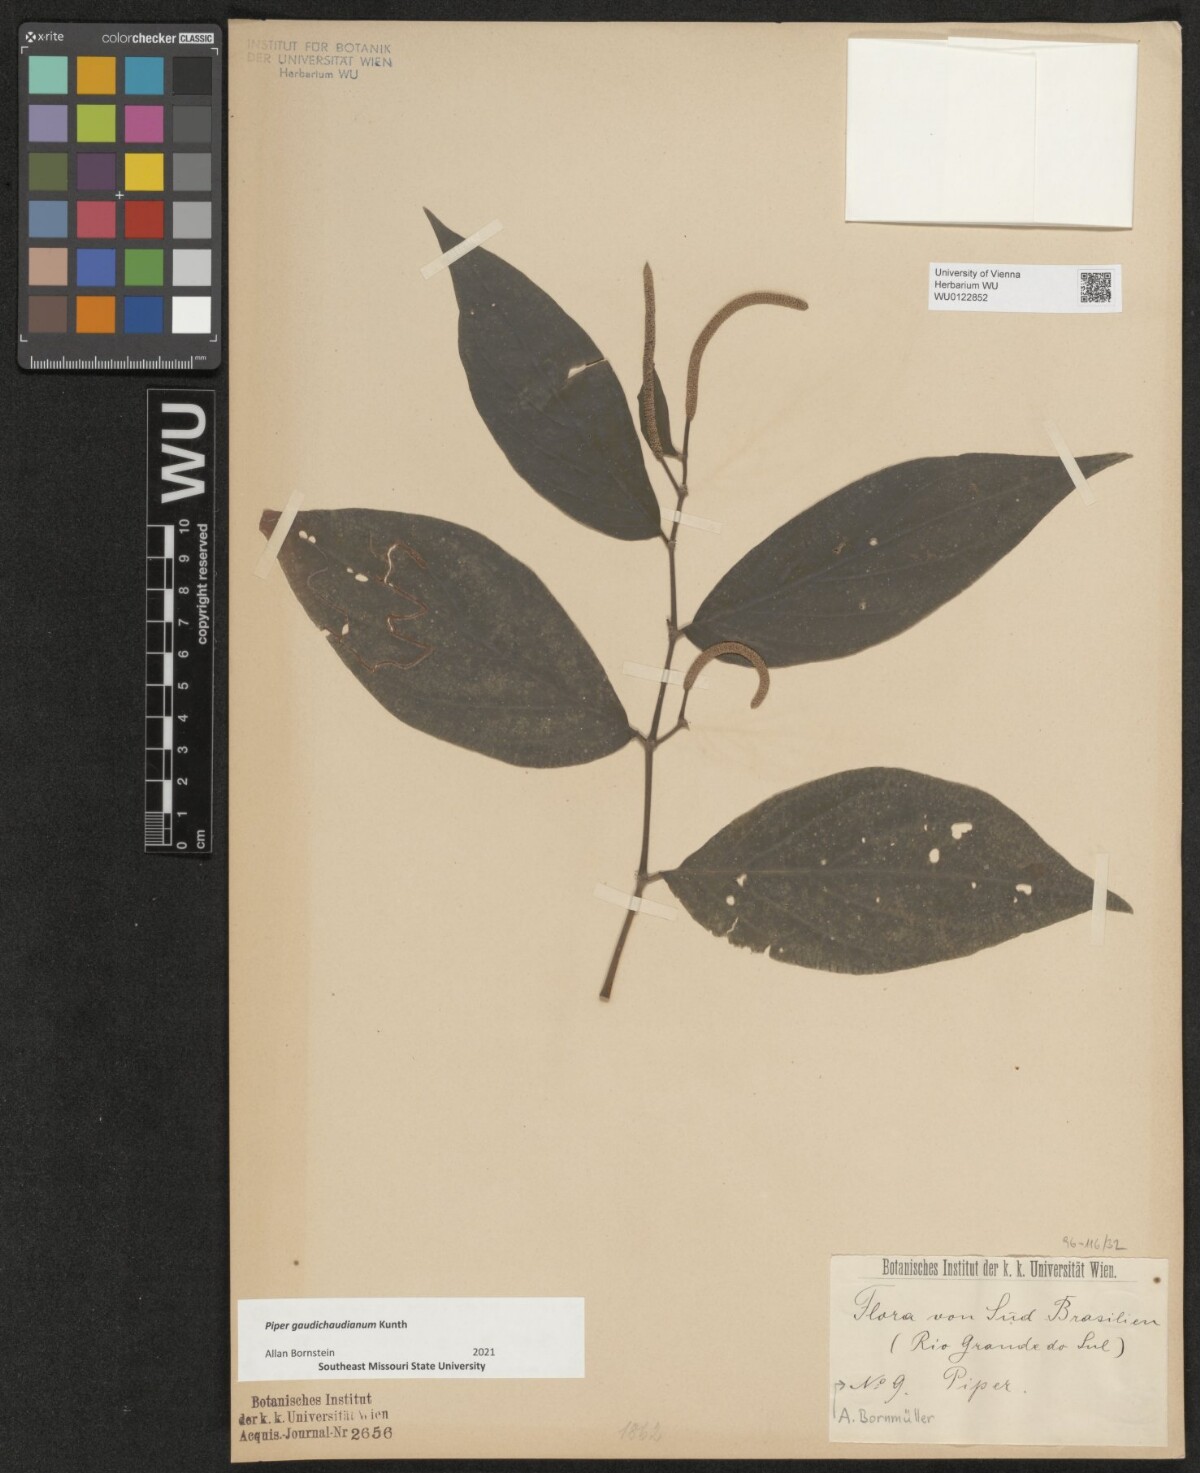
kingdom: Plantae
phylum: Tracheophyta
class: Magnoliopsida
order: Piperales
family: Piperaceae
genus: Piper
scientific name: Piper gaudichaudianum
